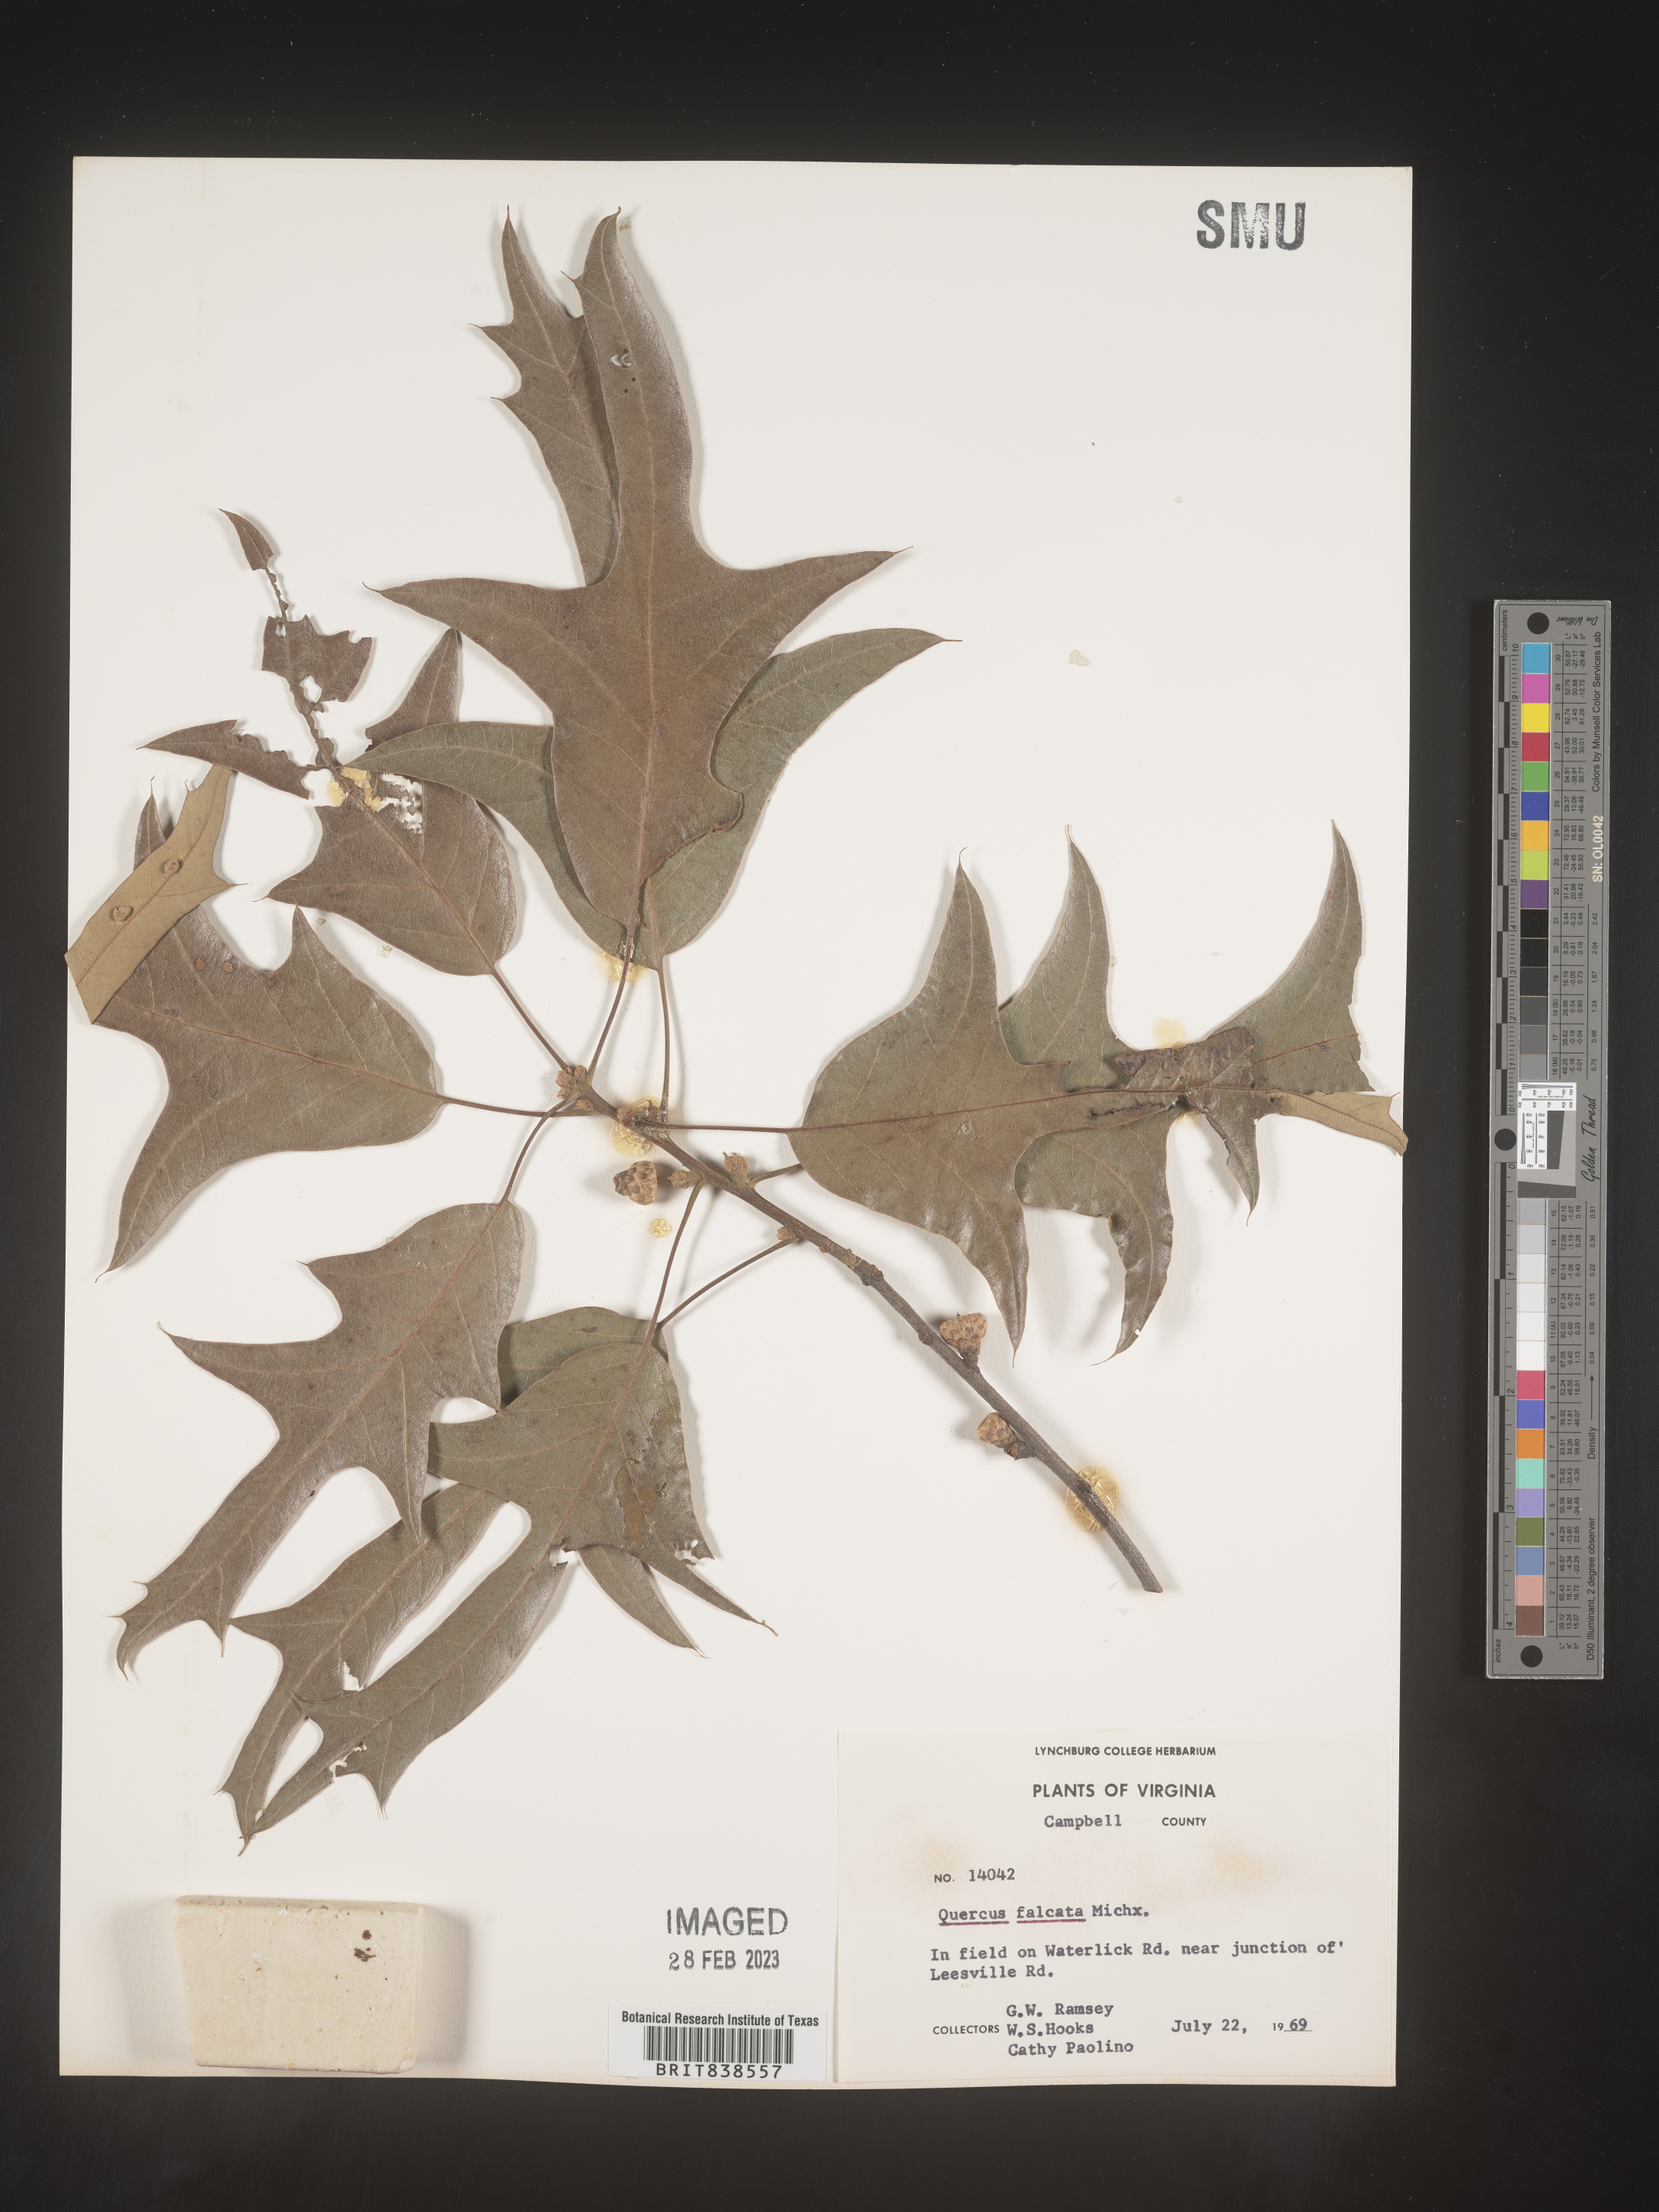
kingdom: Plantae
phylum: Tracheophyta
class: Magnoliopsida
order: Fagales
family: Fagaceae
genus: Quercus
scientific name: Quercus falcata
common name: Southern red oak
